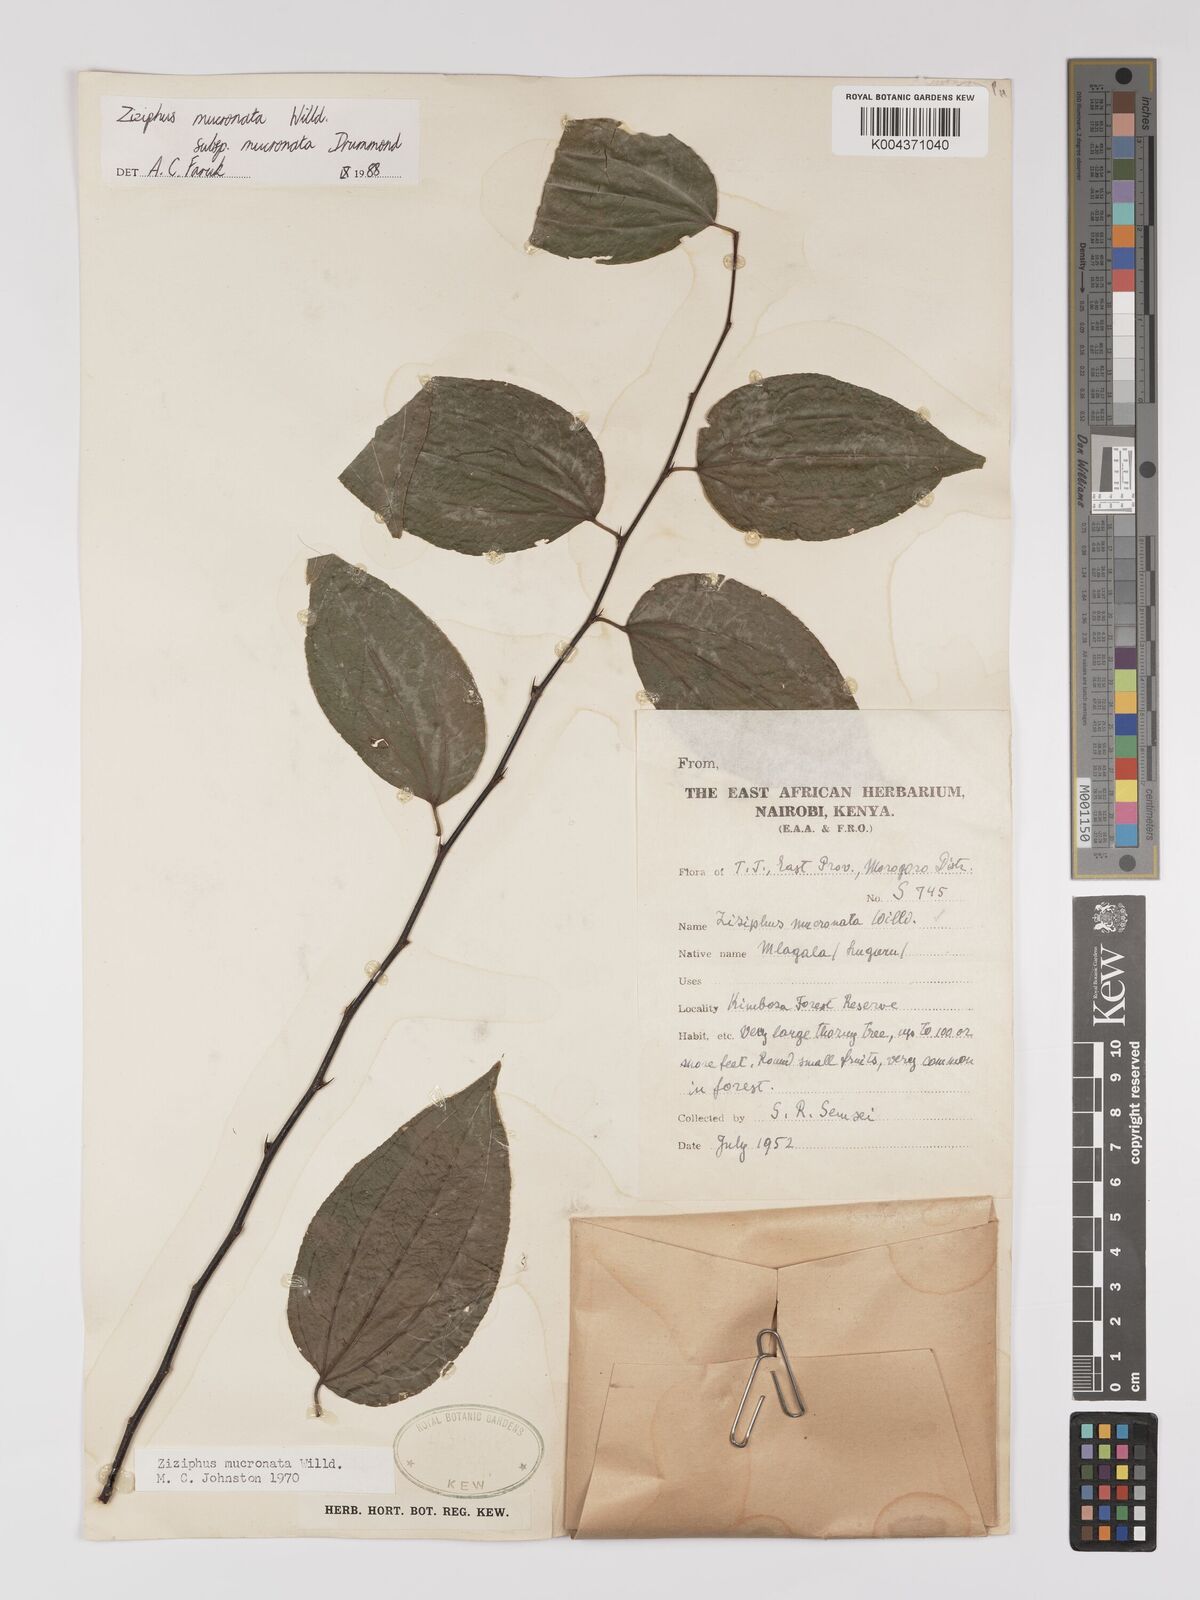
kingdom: Plantae
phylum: Tracheophyta
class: Magnoliopsida
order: Rosales
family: Rhamnaceae
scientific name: Rhamnaceae
